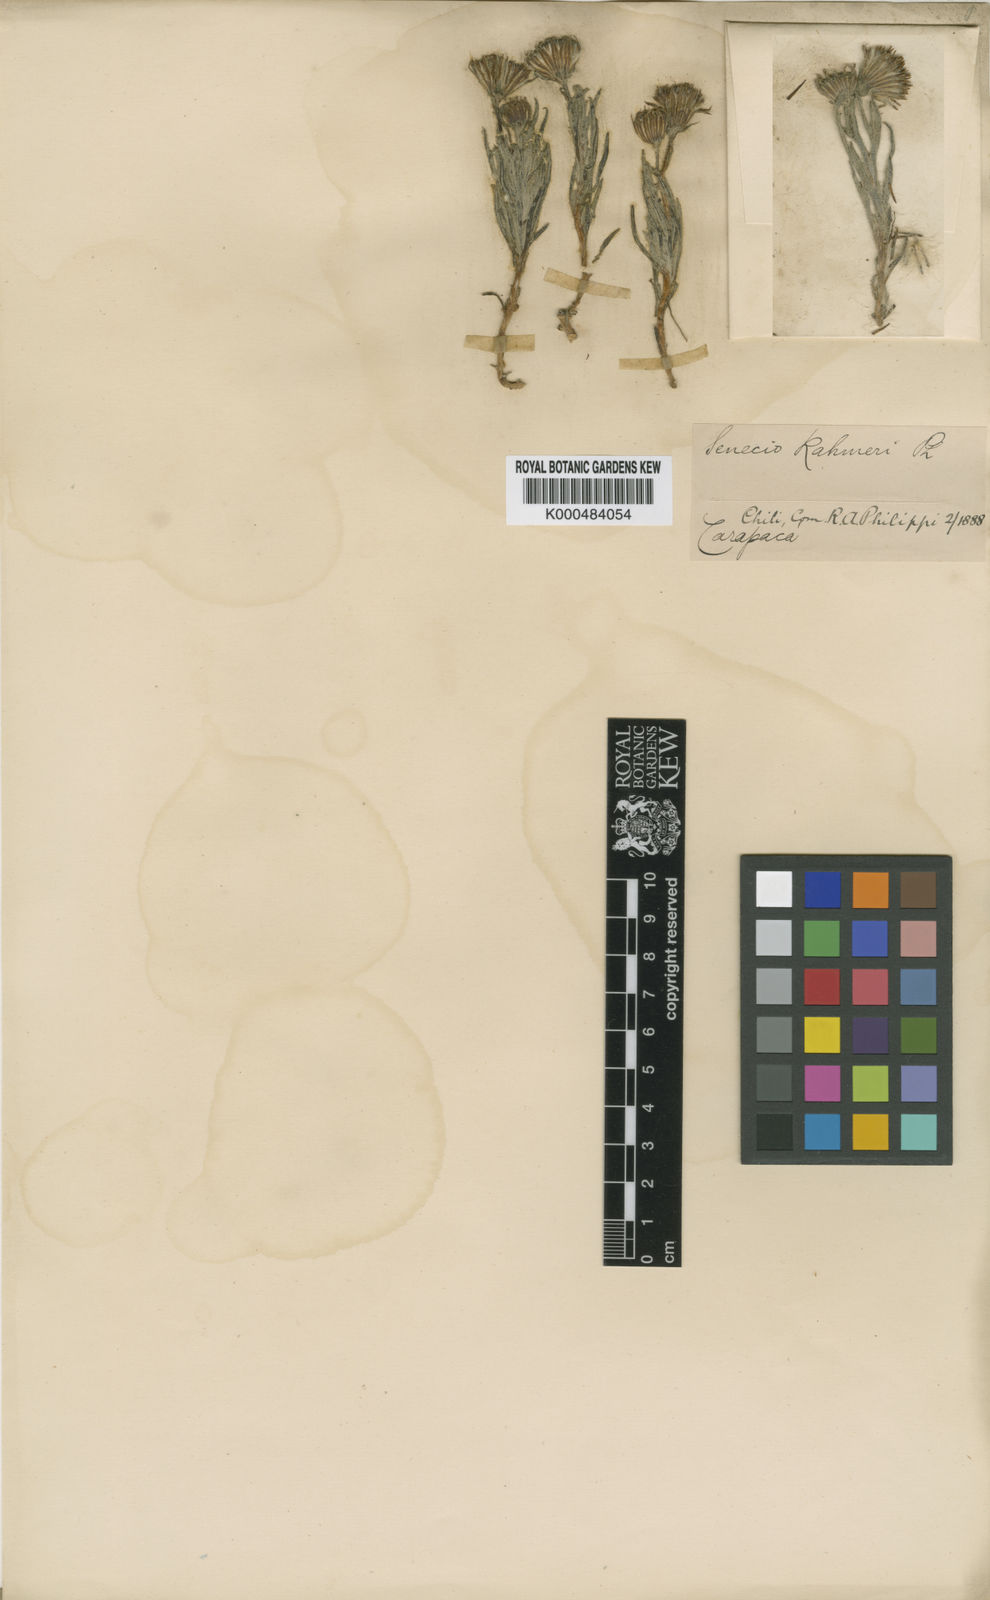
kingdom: Plantae
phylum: Tracheophyta
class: Magnoliopsida
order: Asterales
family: Asteraceae
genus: Senecio
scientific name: Senecio rahmeri
